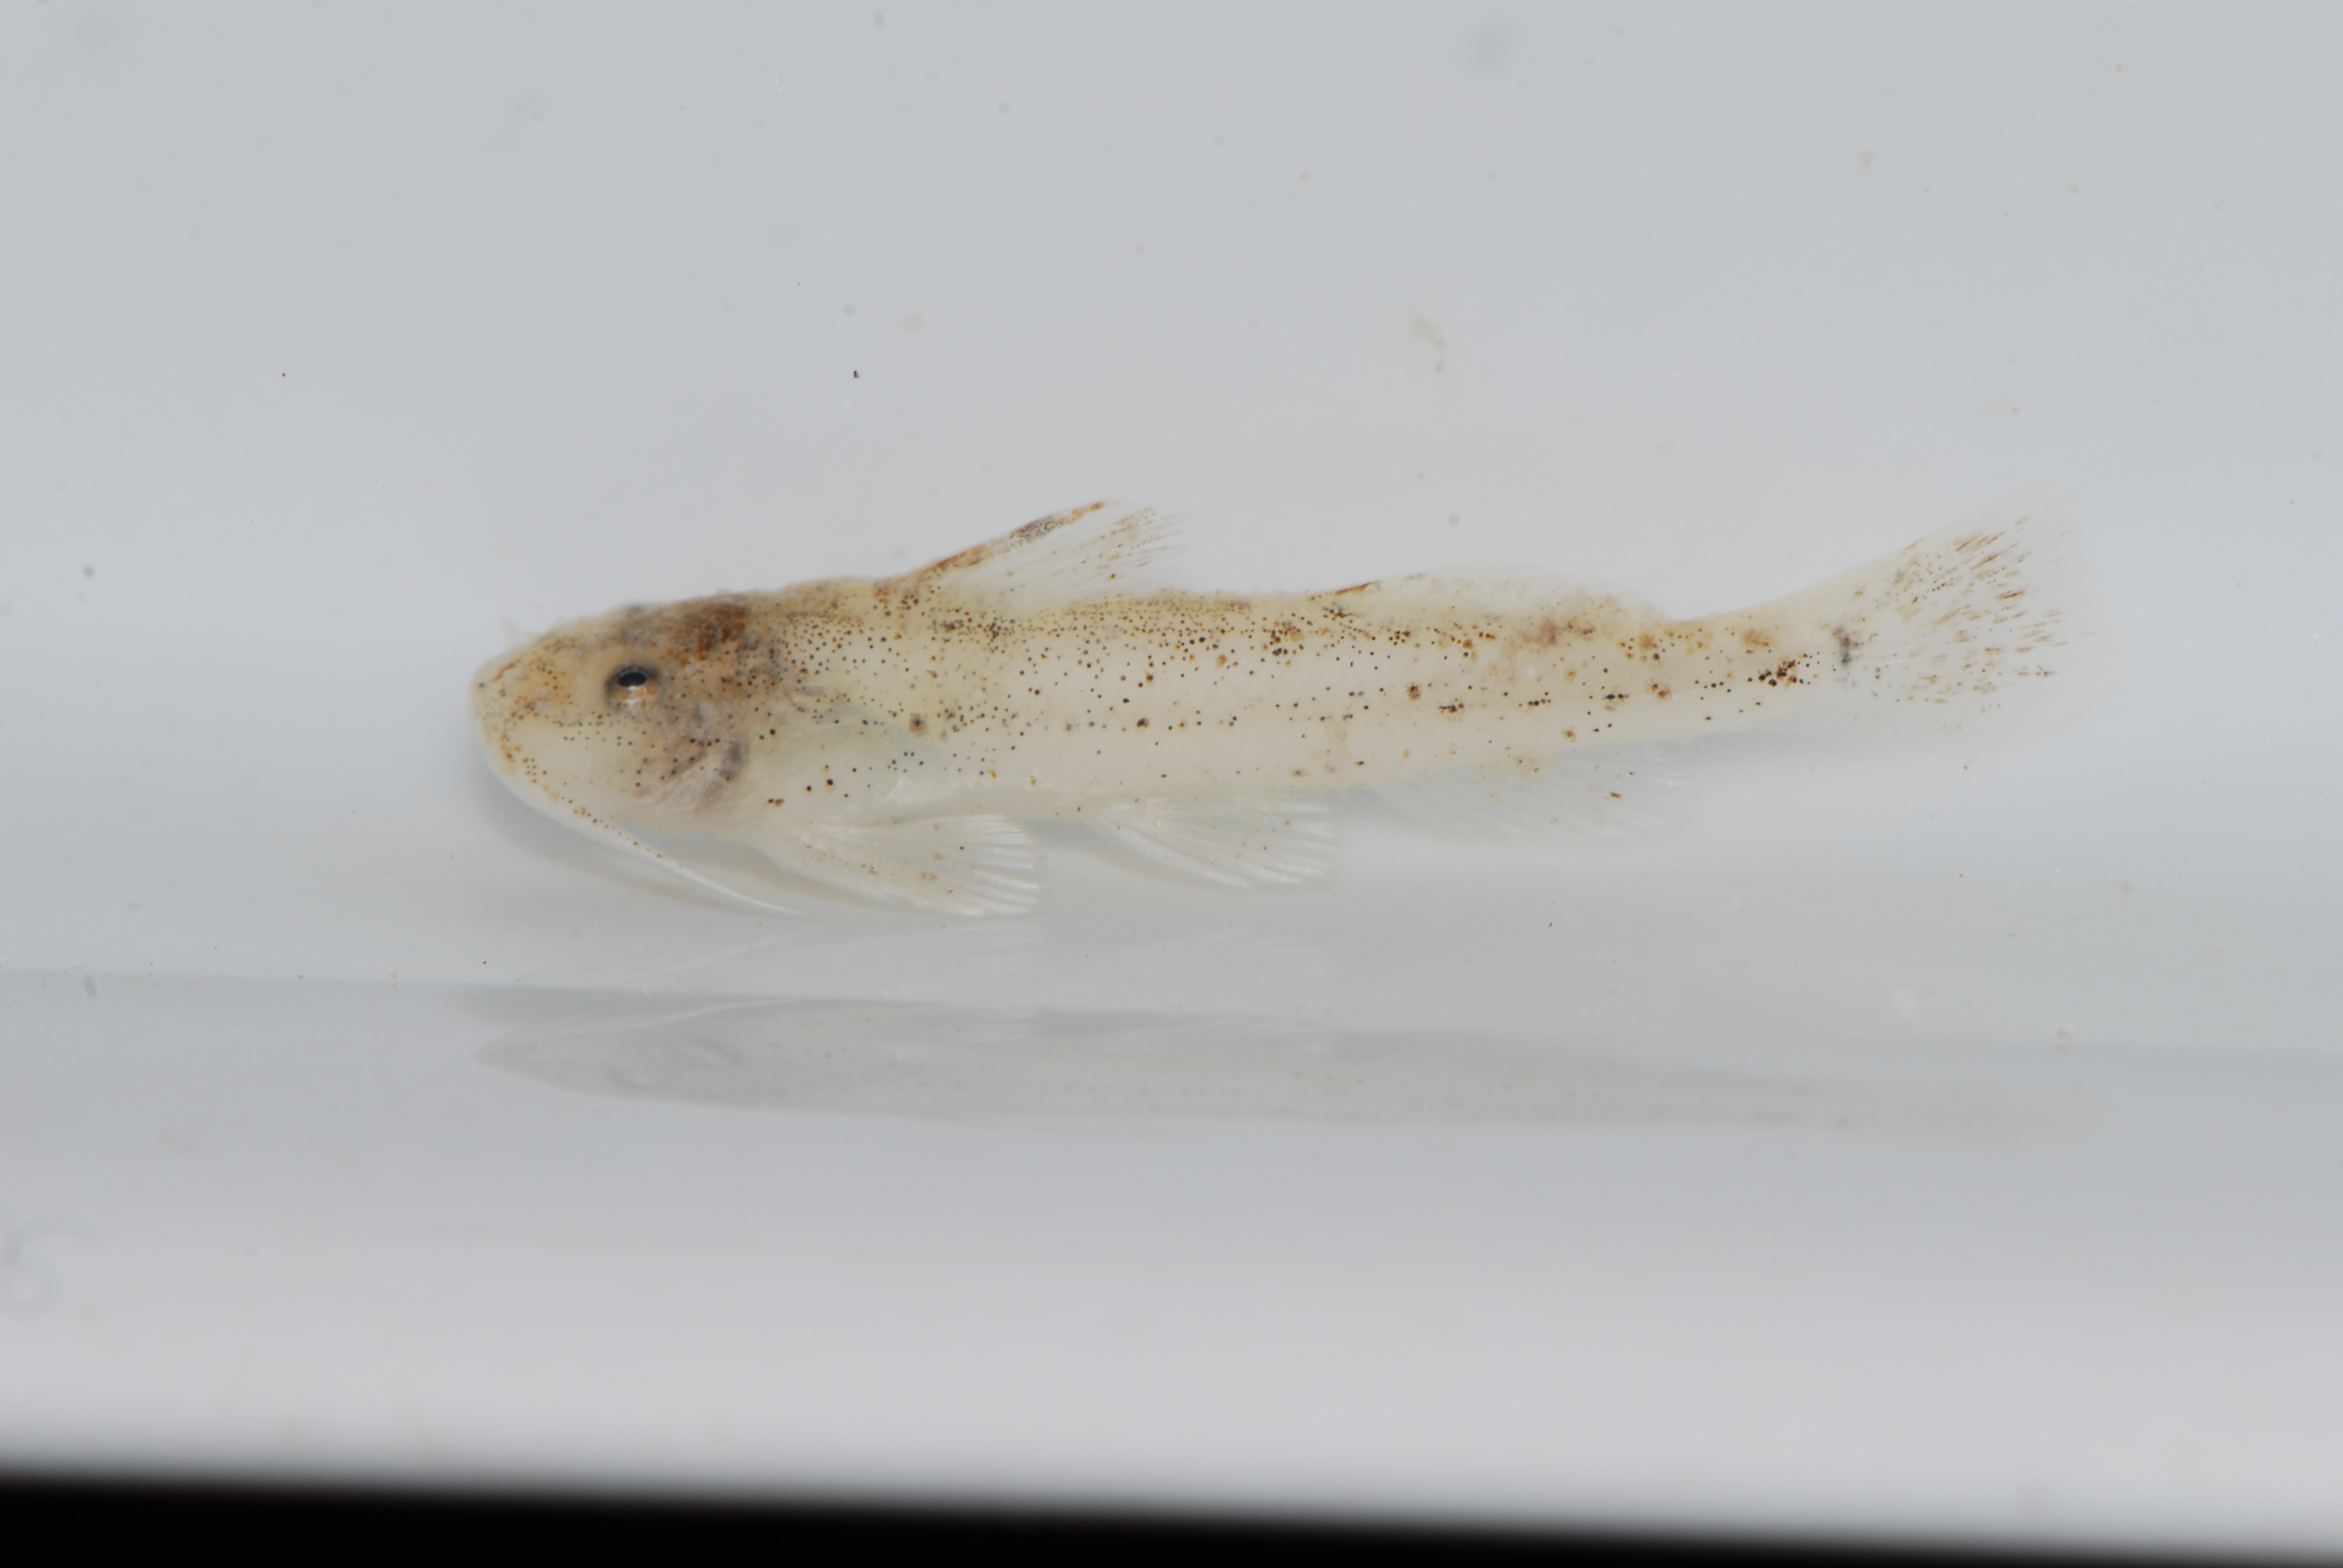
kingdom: Animalia
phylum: Chordata
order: Siluriformes
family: Amphiliidae
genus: Zaireichthys
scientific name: Zaireichthys
